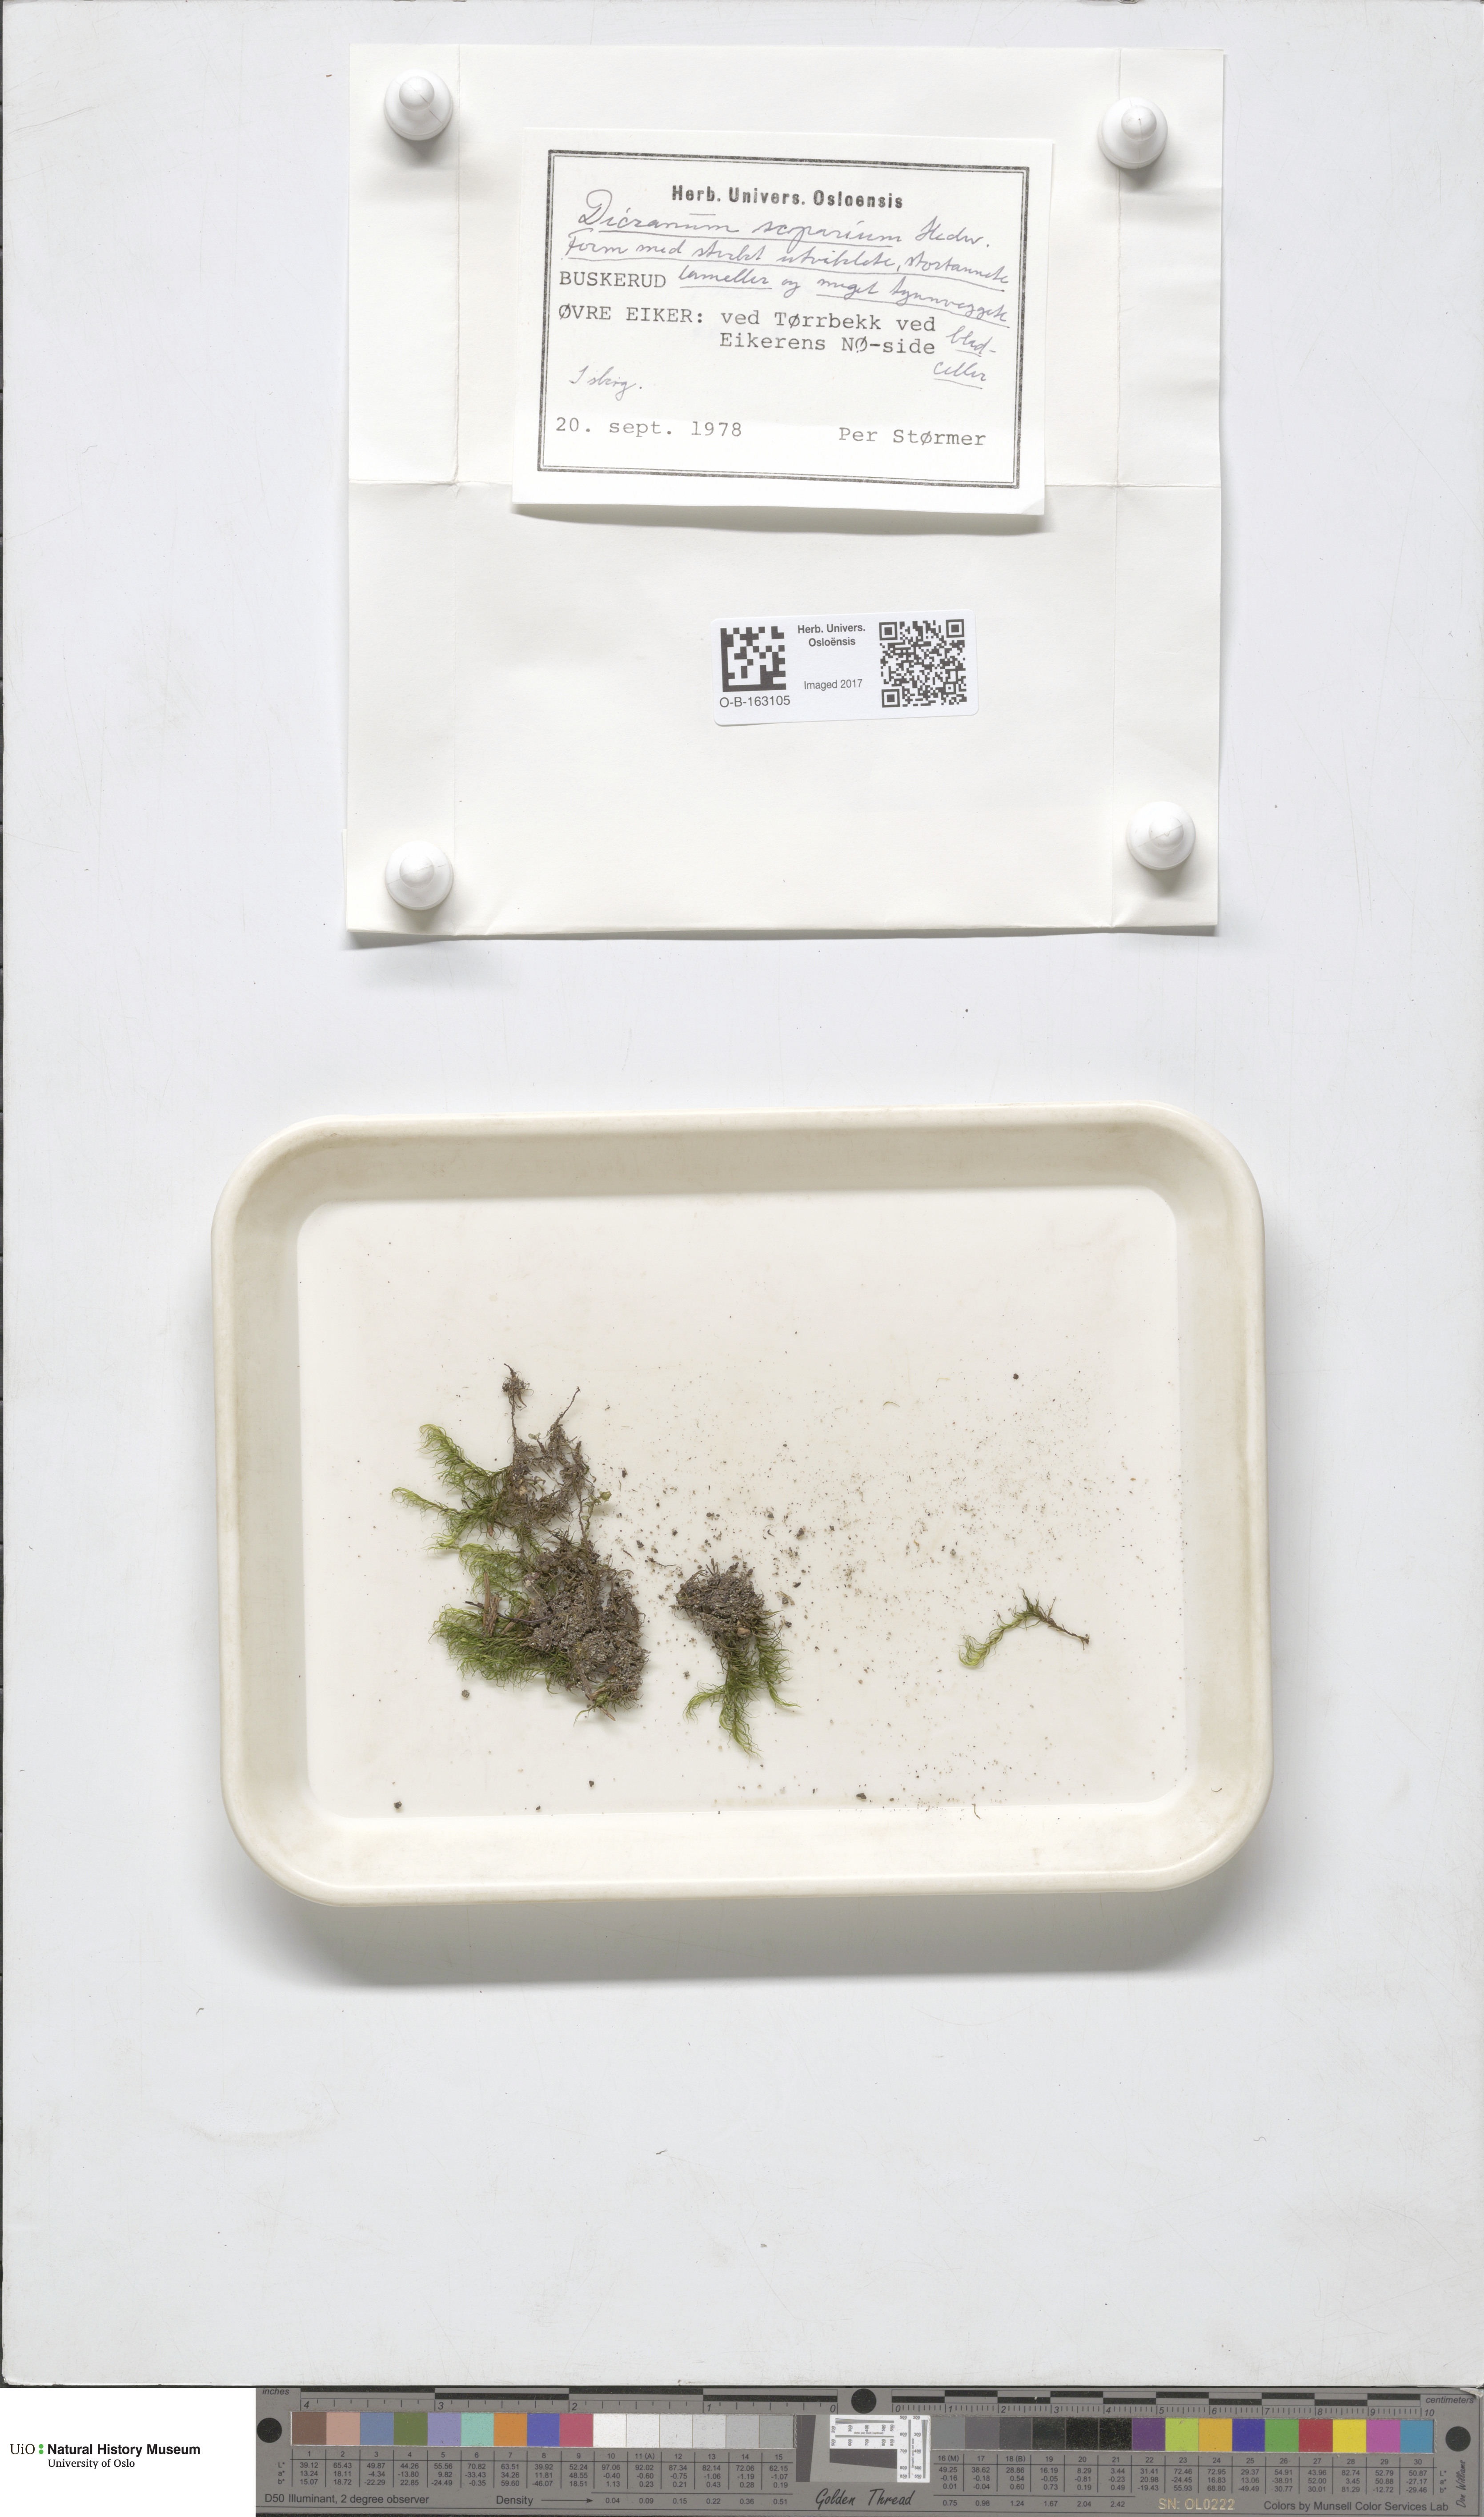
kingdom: Plantae
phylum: Bryophyta
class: Bryopsida
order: Dicranales
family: Dicranaceae
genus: Dicranum
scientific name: Dicranum scoparium
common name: Broom fork-moss
